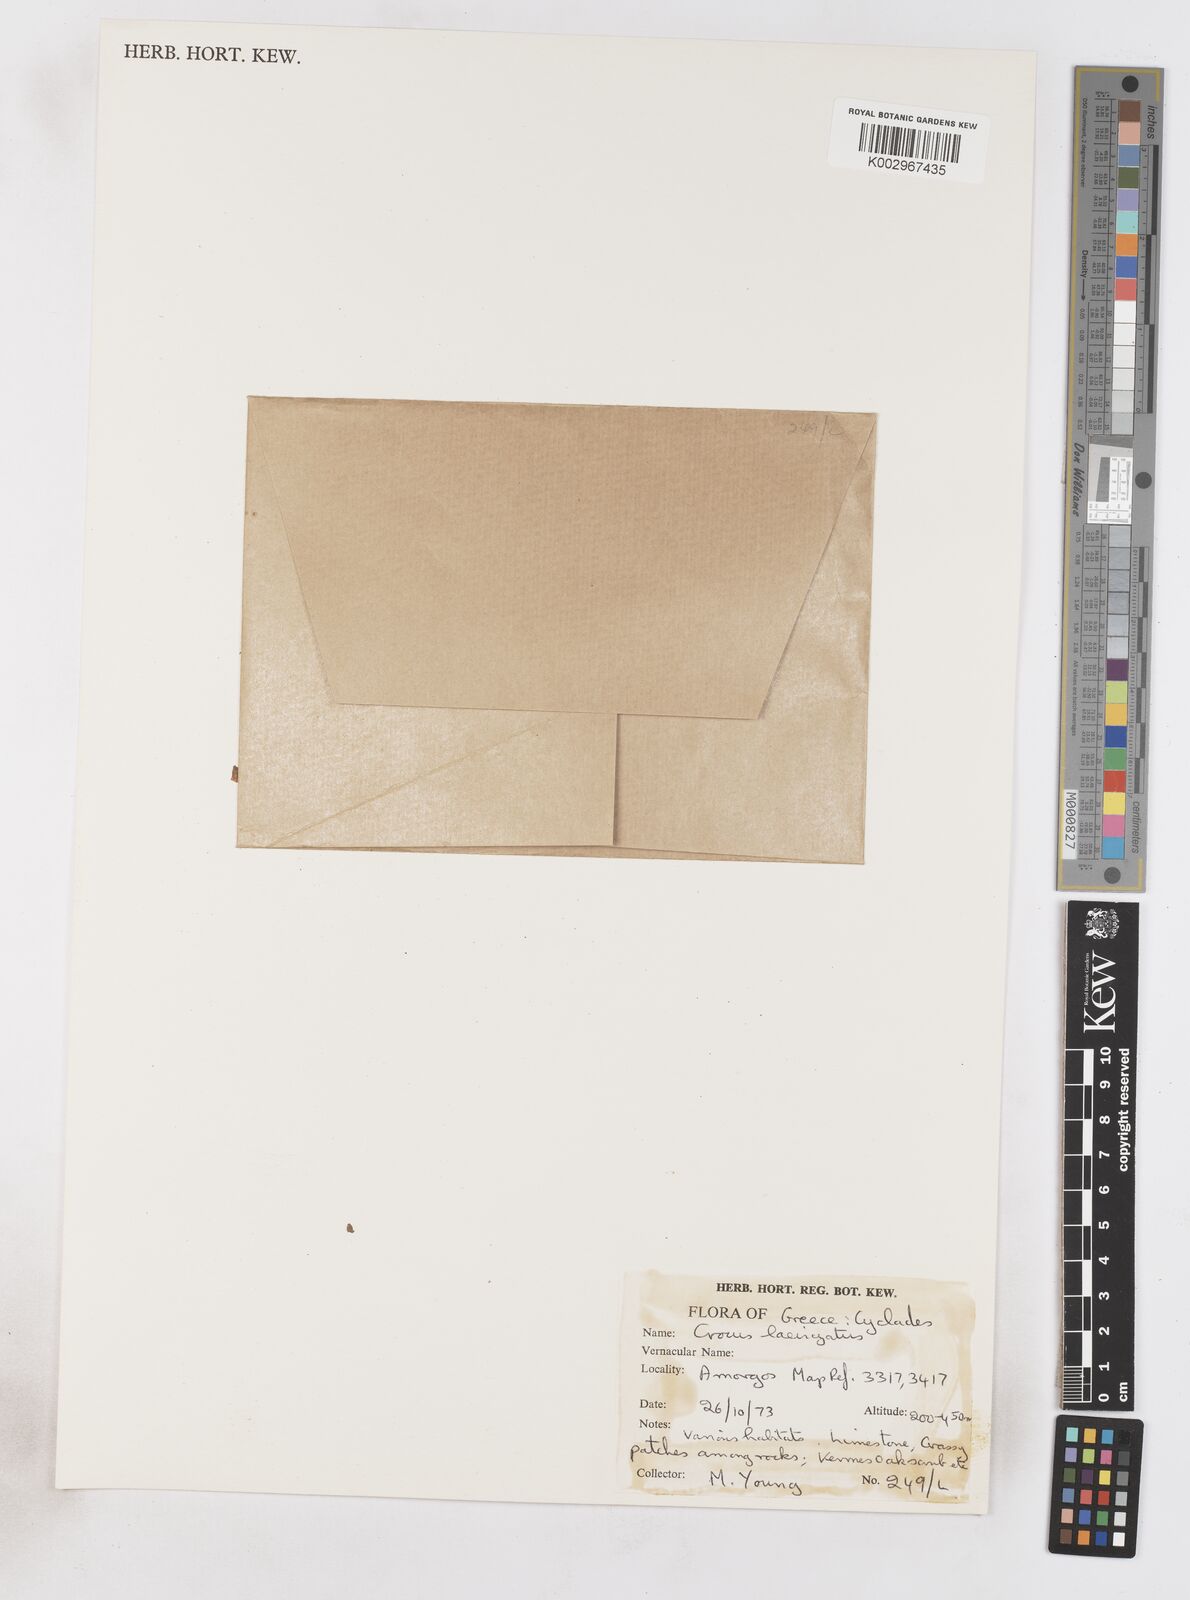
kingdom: Plantae
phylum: Tracheophyta
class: Liliopsida
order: Asparagales
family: Iridaceae
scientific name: Iridaceae
